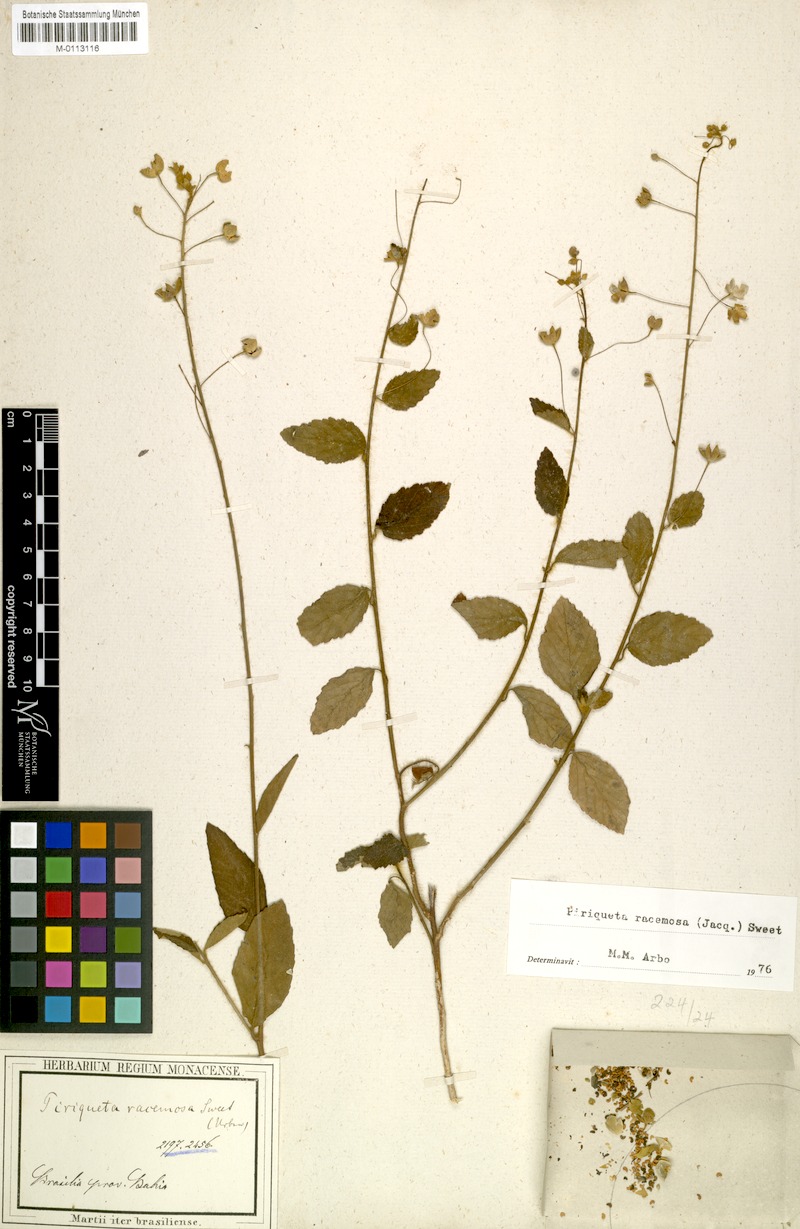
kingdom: Plantae
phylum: Tracheophyta
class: Magnoliopsida
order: Malpighiales
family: Turneraceae
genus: Piriqueta
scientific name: Piriqueta racemosa
